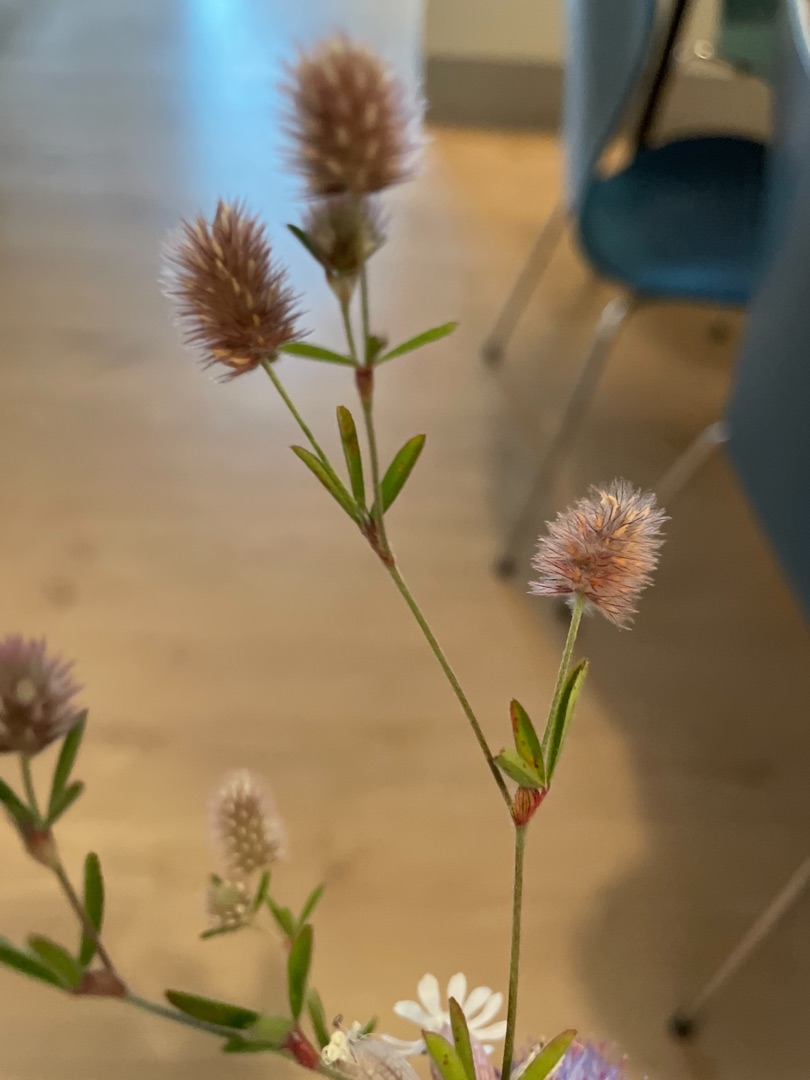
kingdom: Plantae
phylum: Tracheophyta
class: Magnoliopsida
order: Fabales
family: Fabaceae
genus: Trifolium
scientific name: Trifolium arvense
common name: Hare-kløver
